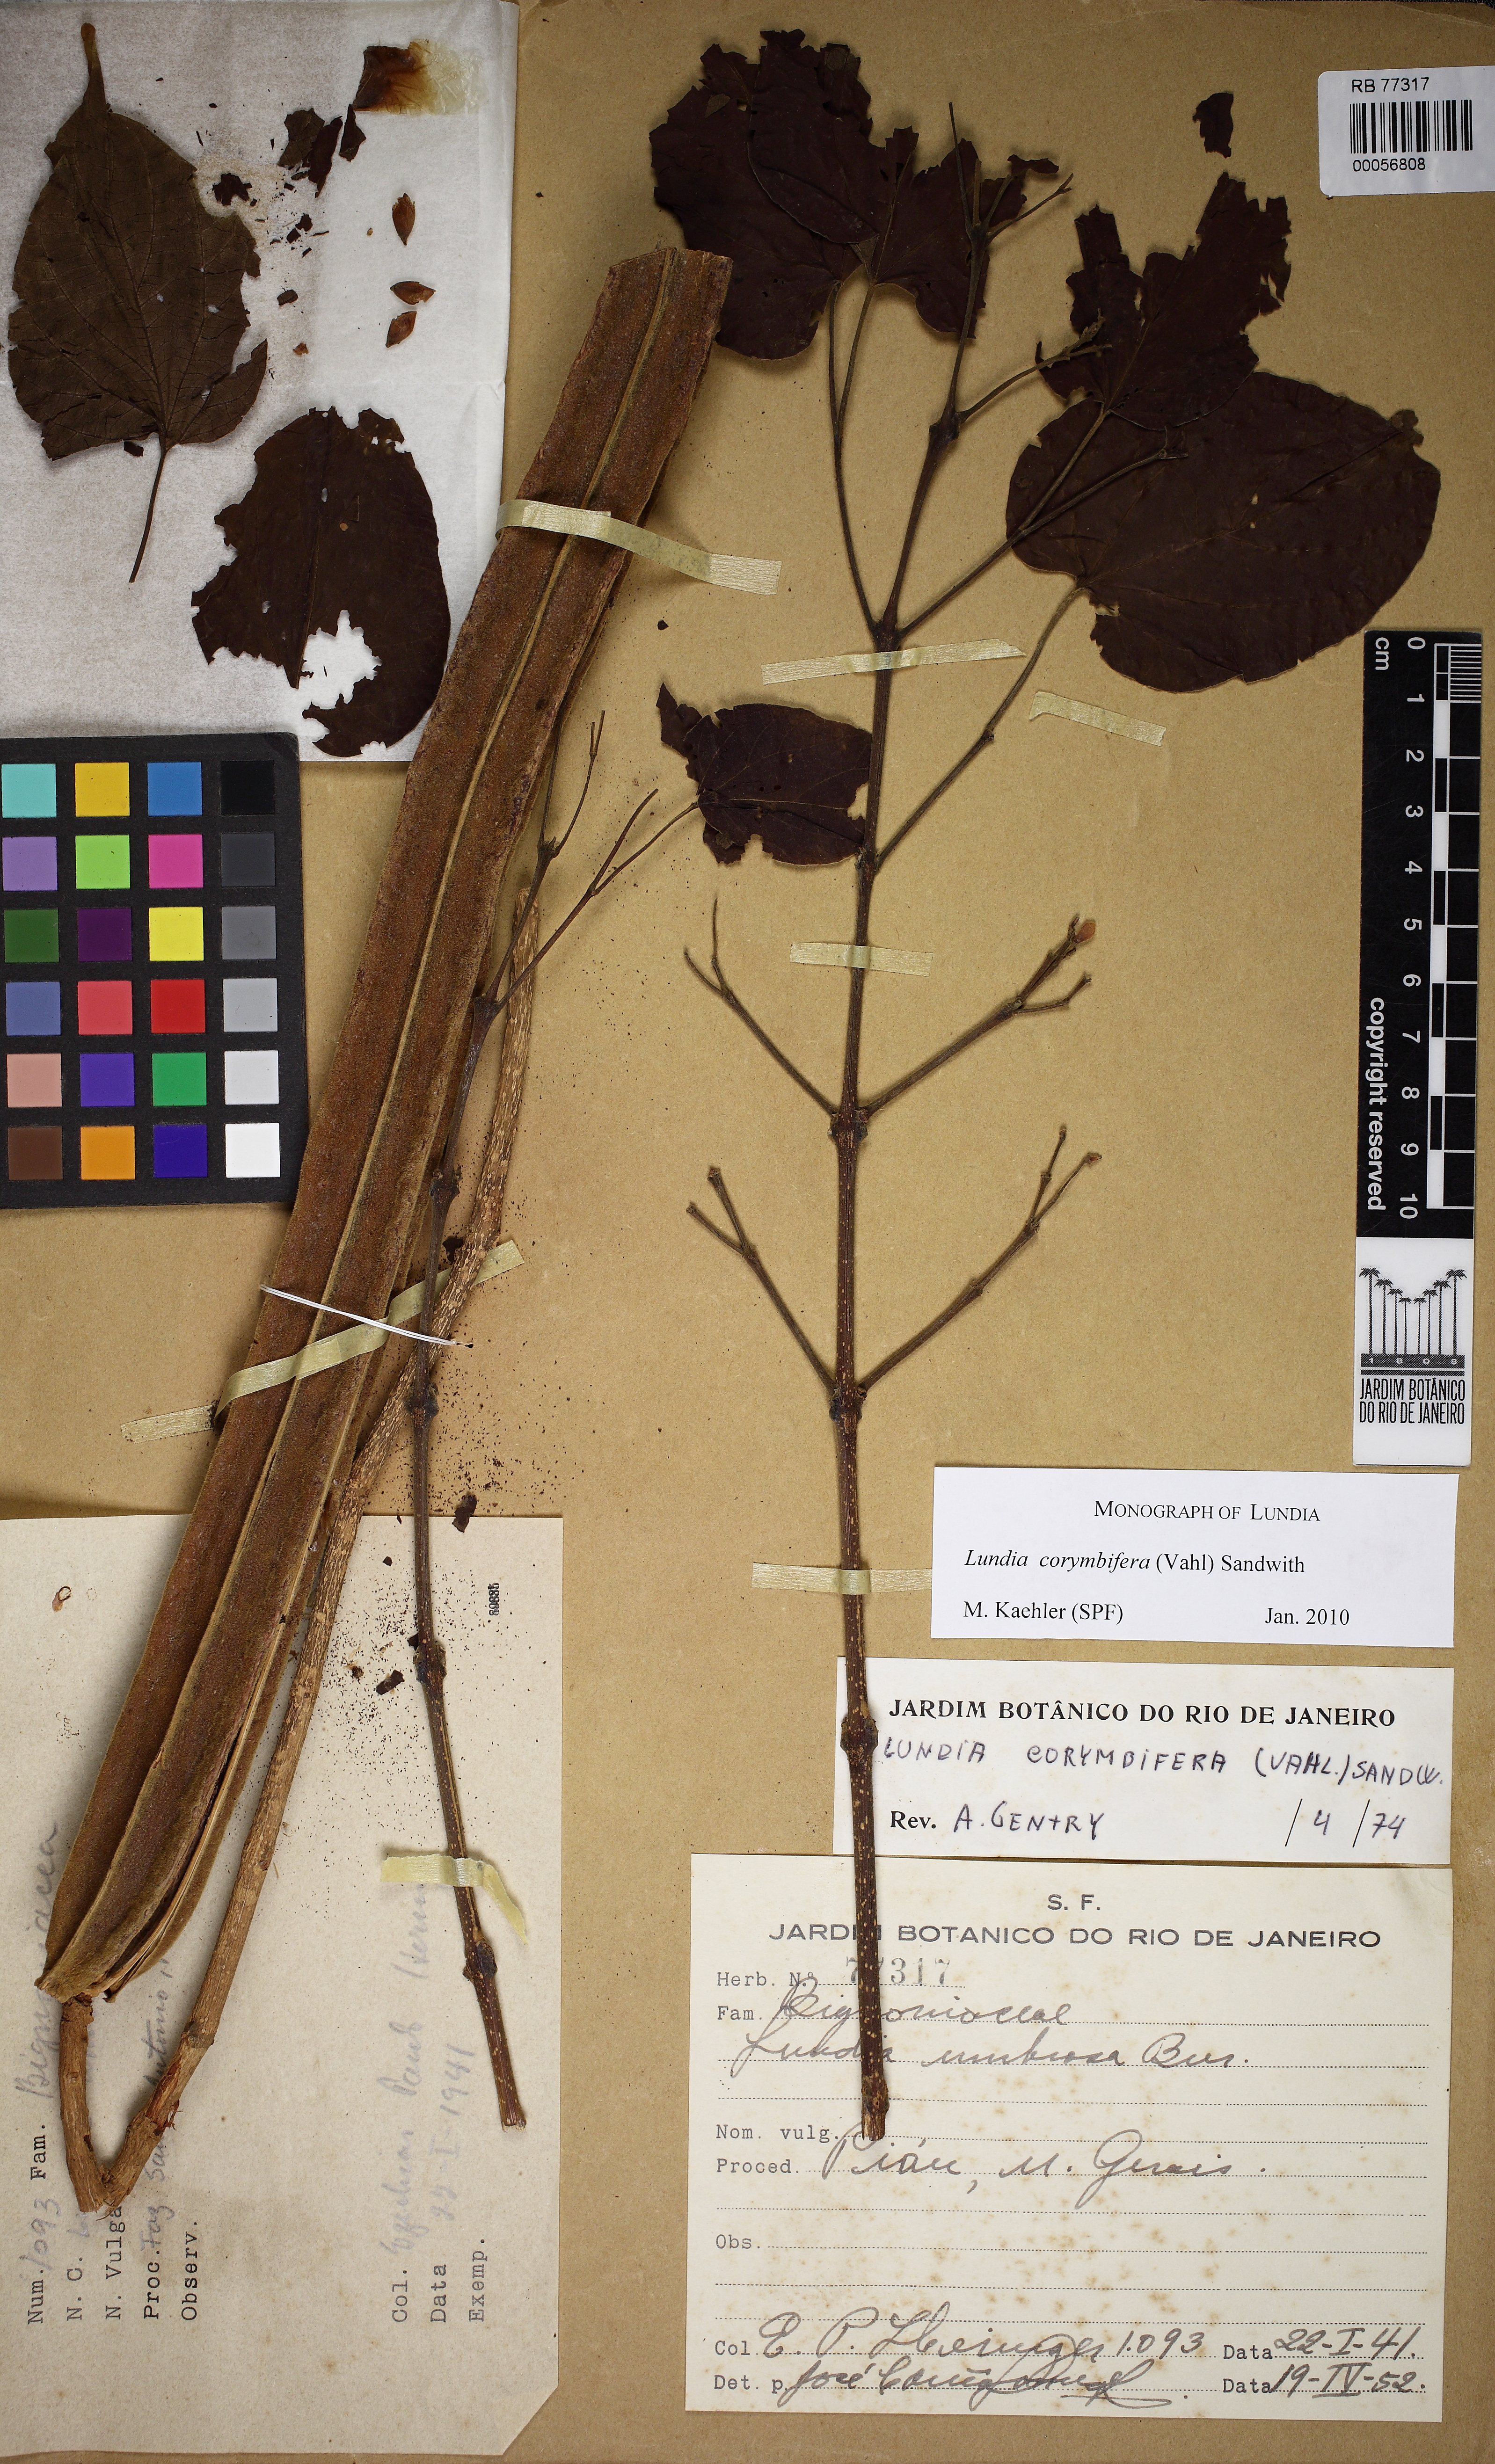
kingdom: Plantae
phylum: Tracheophyta
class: Magnoliopsida
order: Lamiales
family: Bignoniaceae
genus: Lundia
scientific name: Lundia corymbifera
